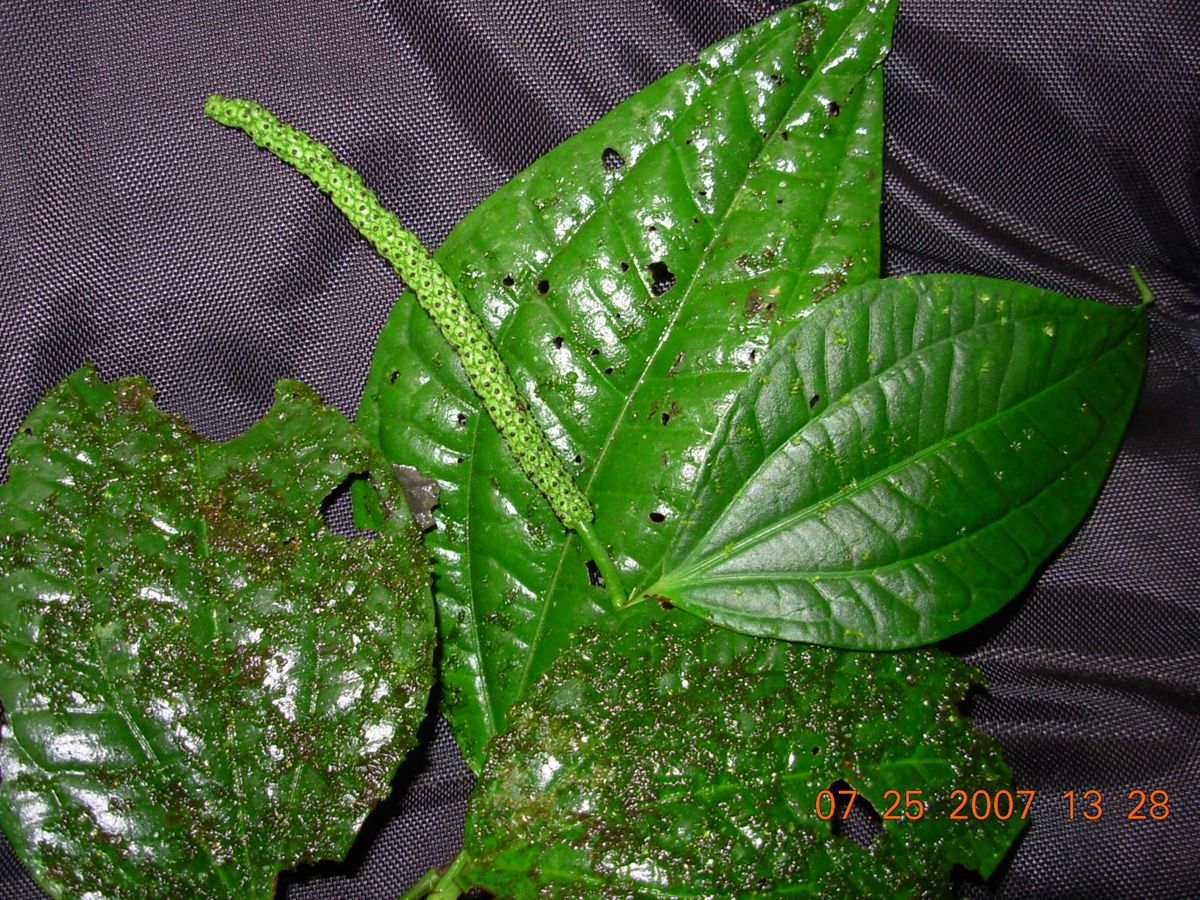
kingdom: Plantae
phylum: Tracheophyta
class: Magnoliopsida
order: Piperales
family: Piperaceae
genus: Piper
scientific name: Piper amalago
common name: Pepper-elder
